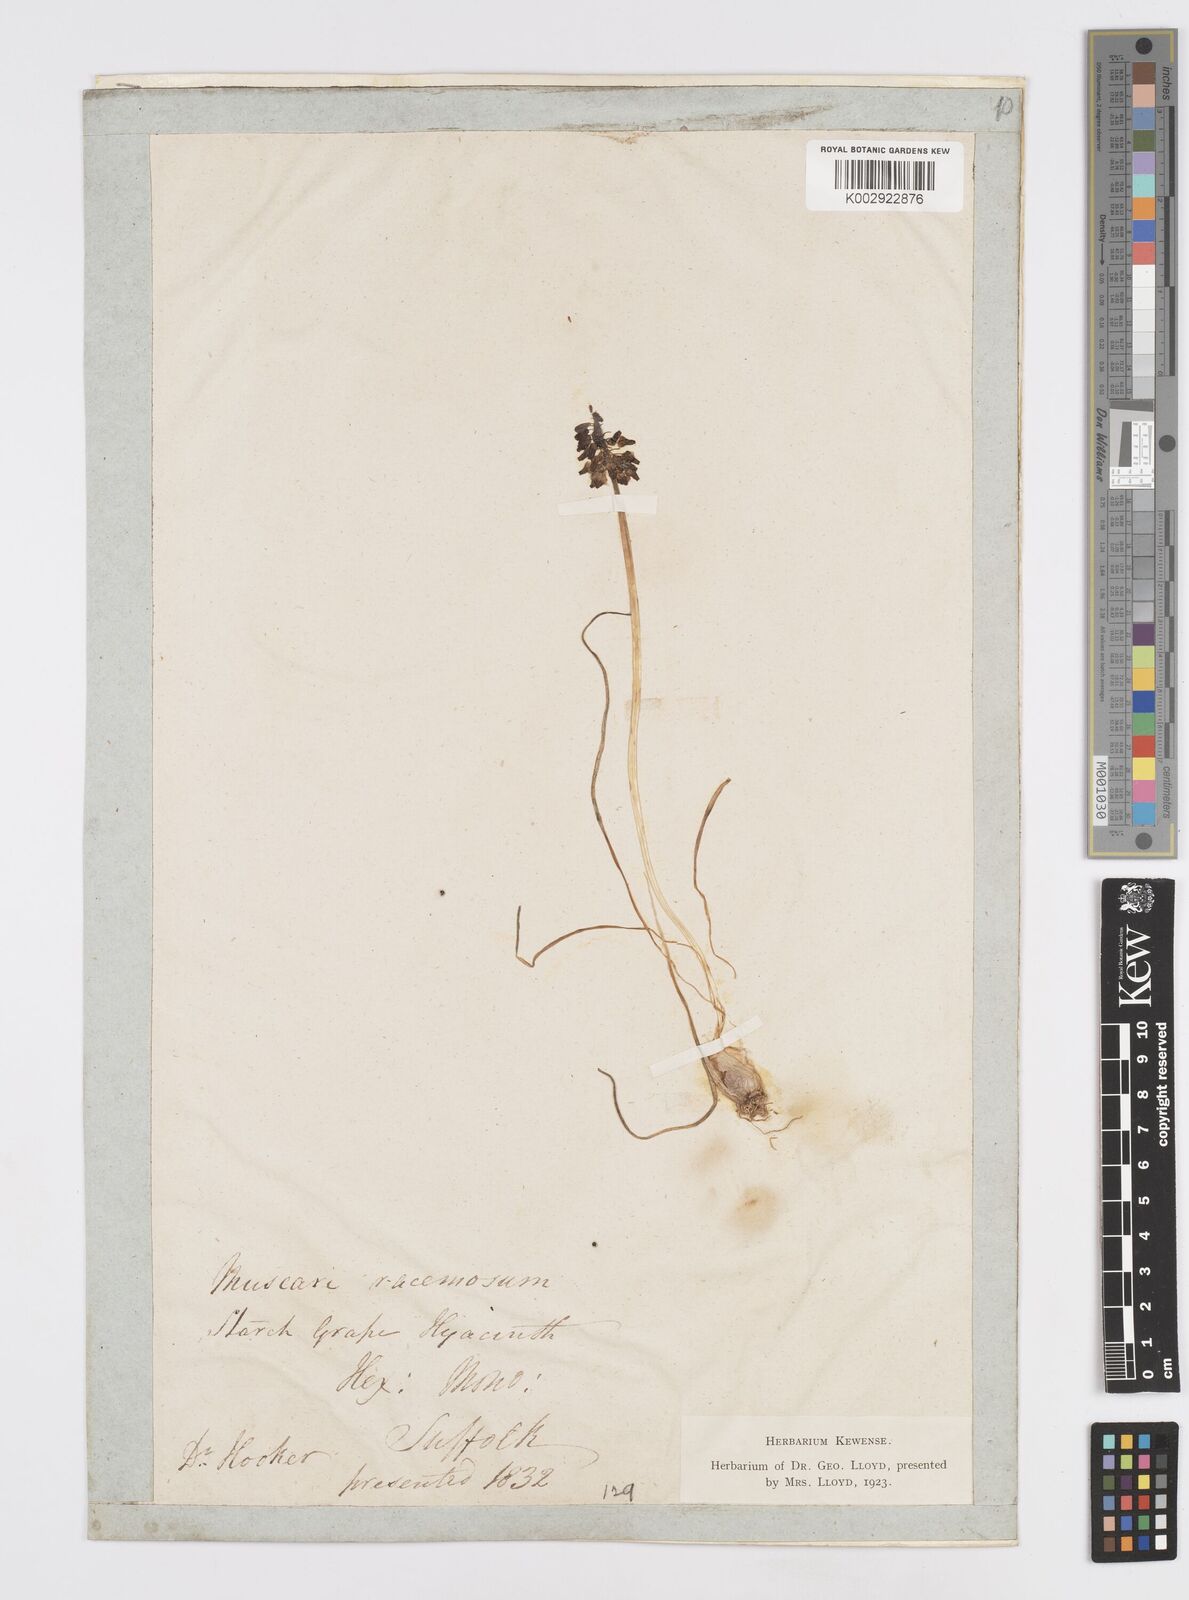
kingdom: Plantae
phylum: Tracheophyta
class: Liliopsida
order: Asparagales
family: Asparagaceae
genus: Muscari
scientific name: Muscari neglectum
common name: Grape-hyacinth
